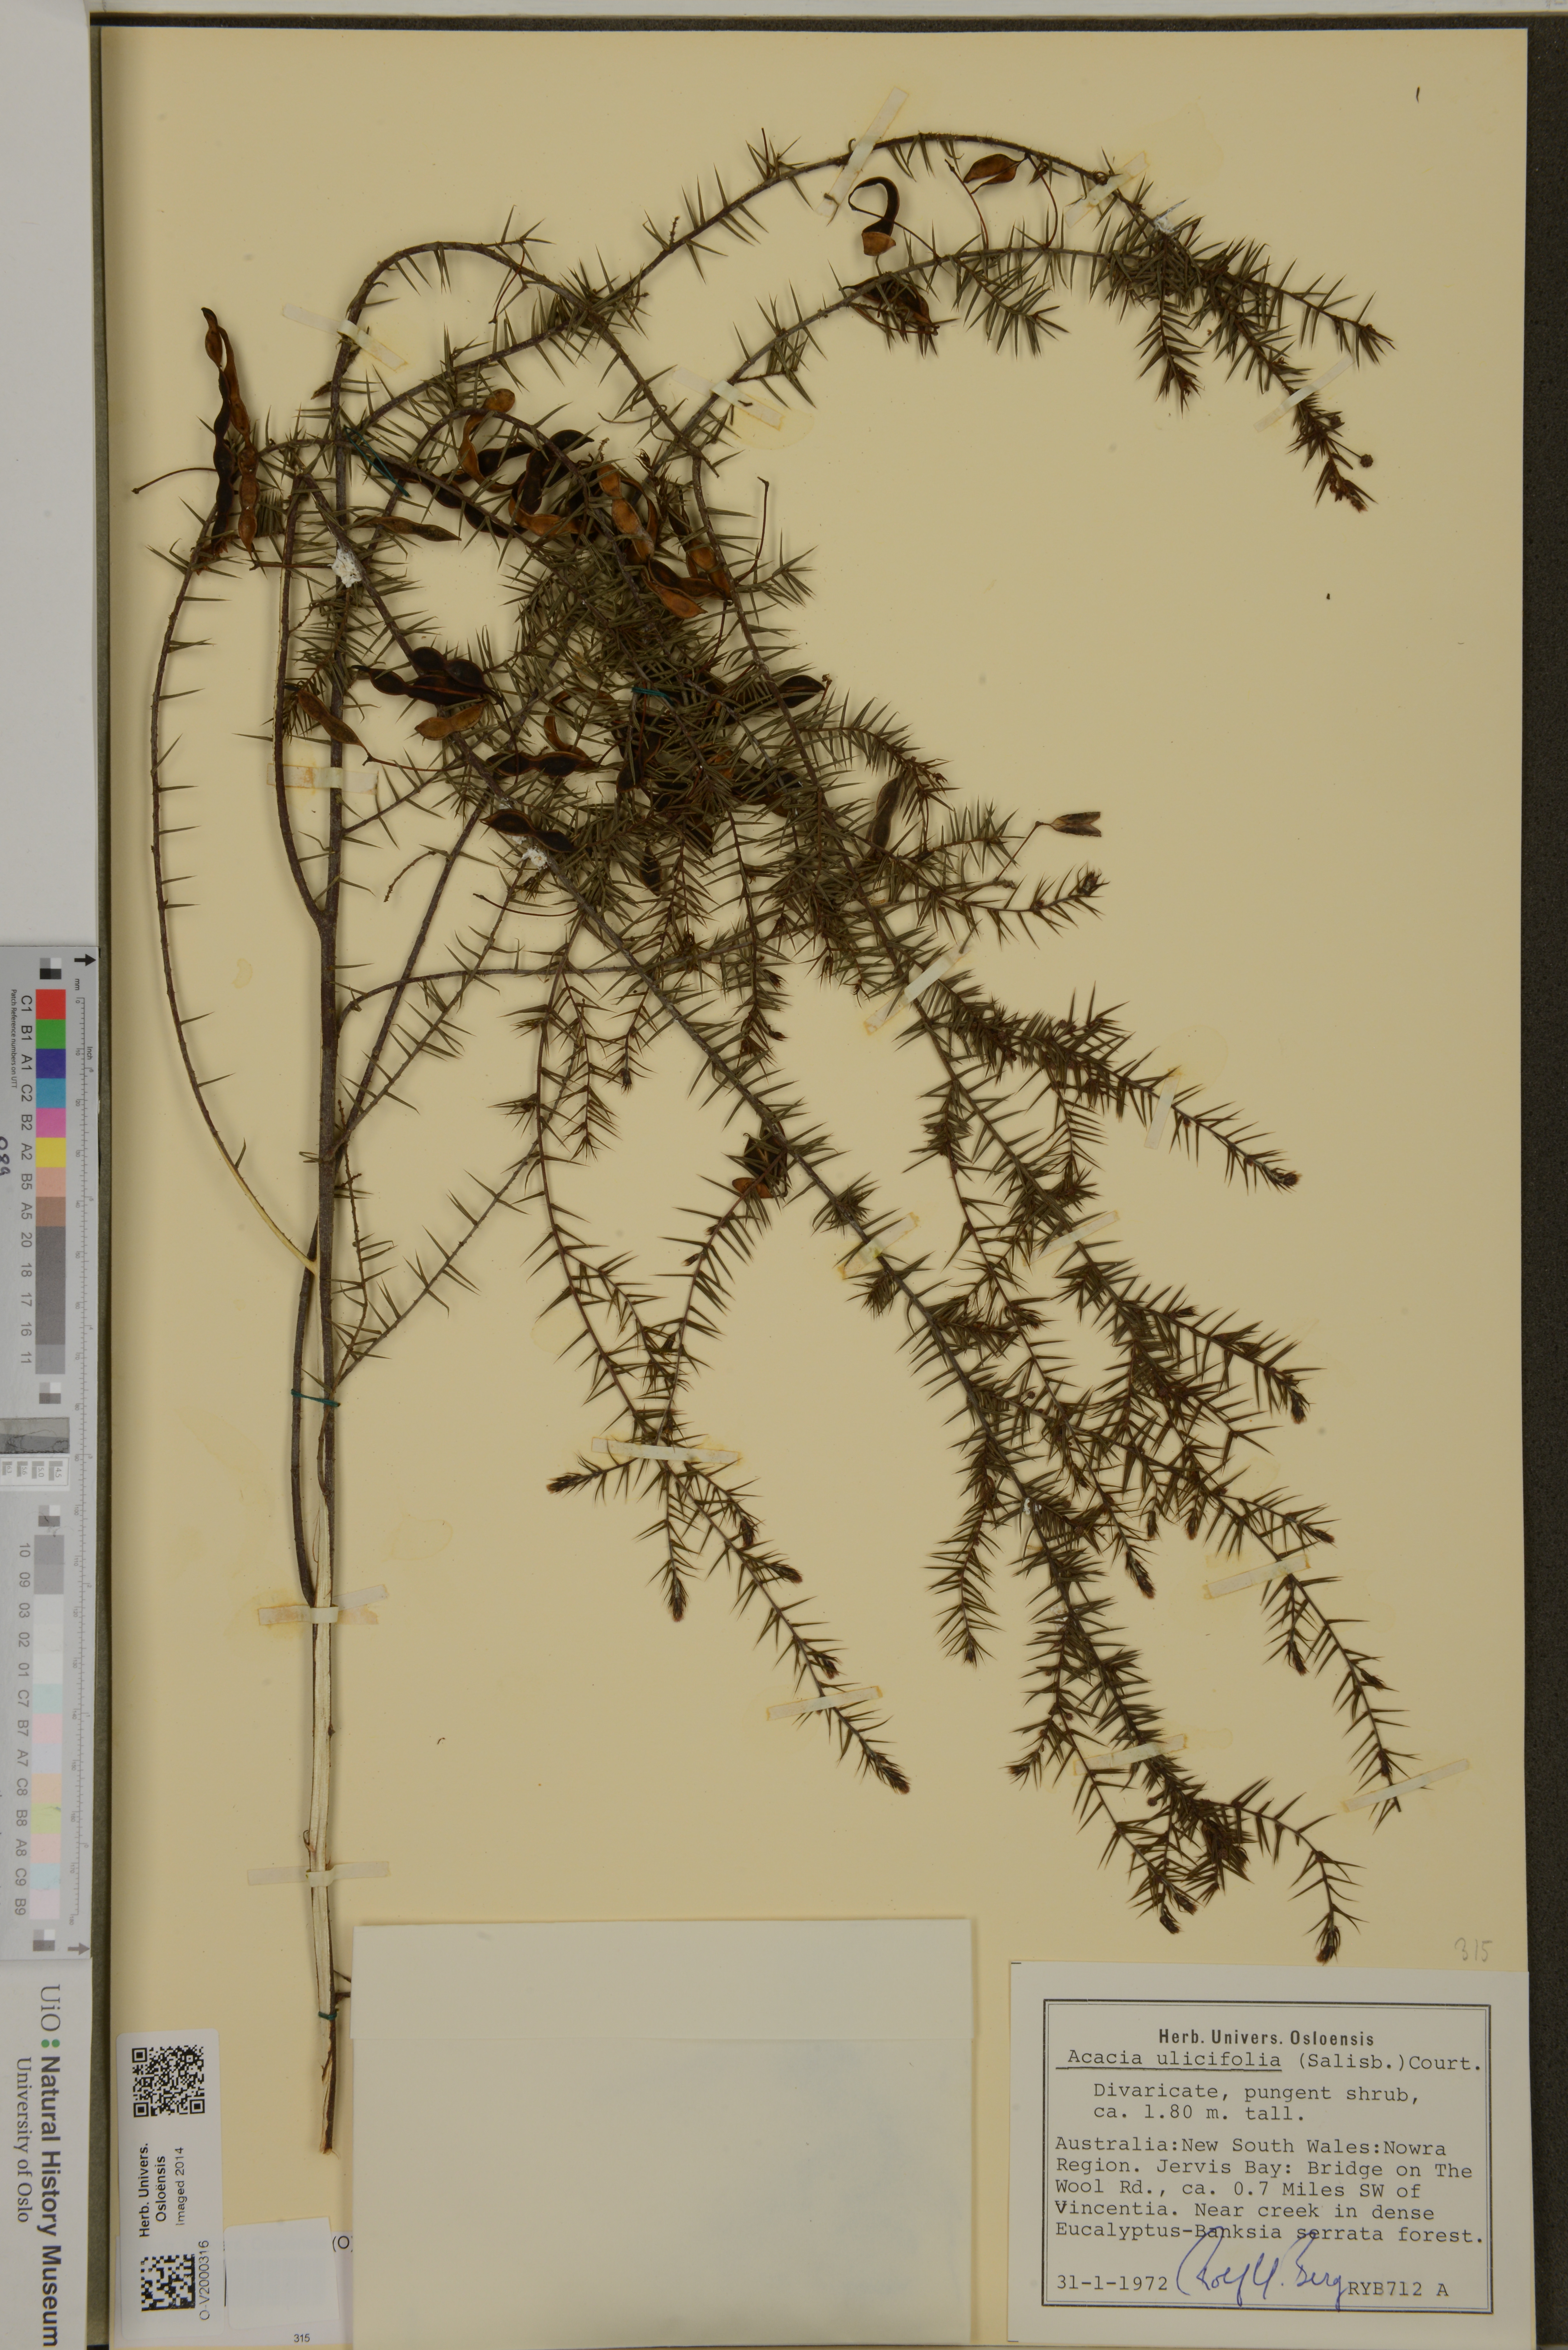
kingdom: Plantae
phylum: Tracheophyta
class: Magnoliopsida
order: Fabales
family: Fabaceae
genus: Acacia
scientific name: Acacia ulicifolia
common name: Juniper wattle
